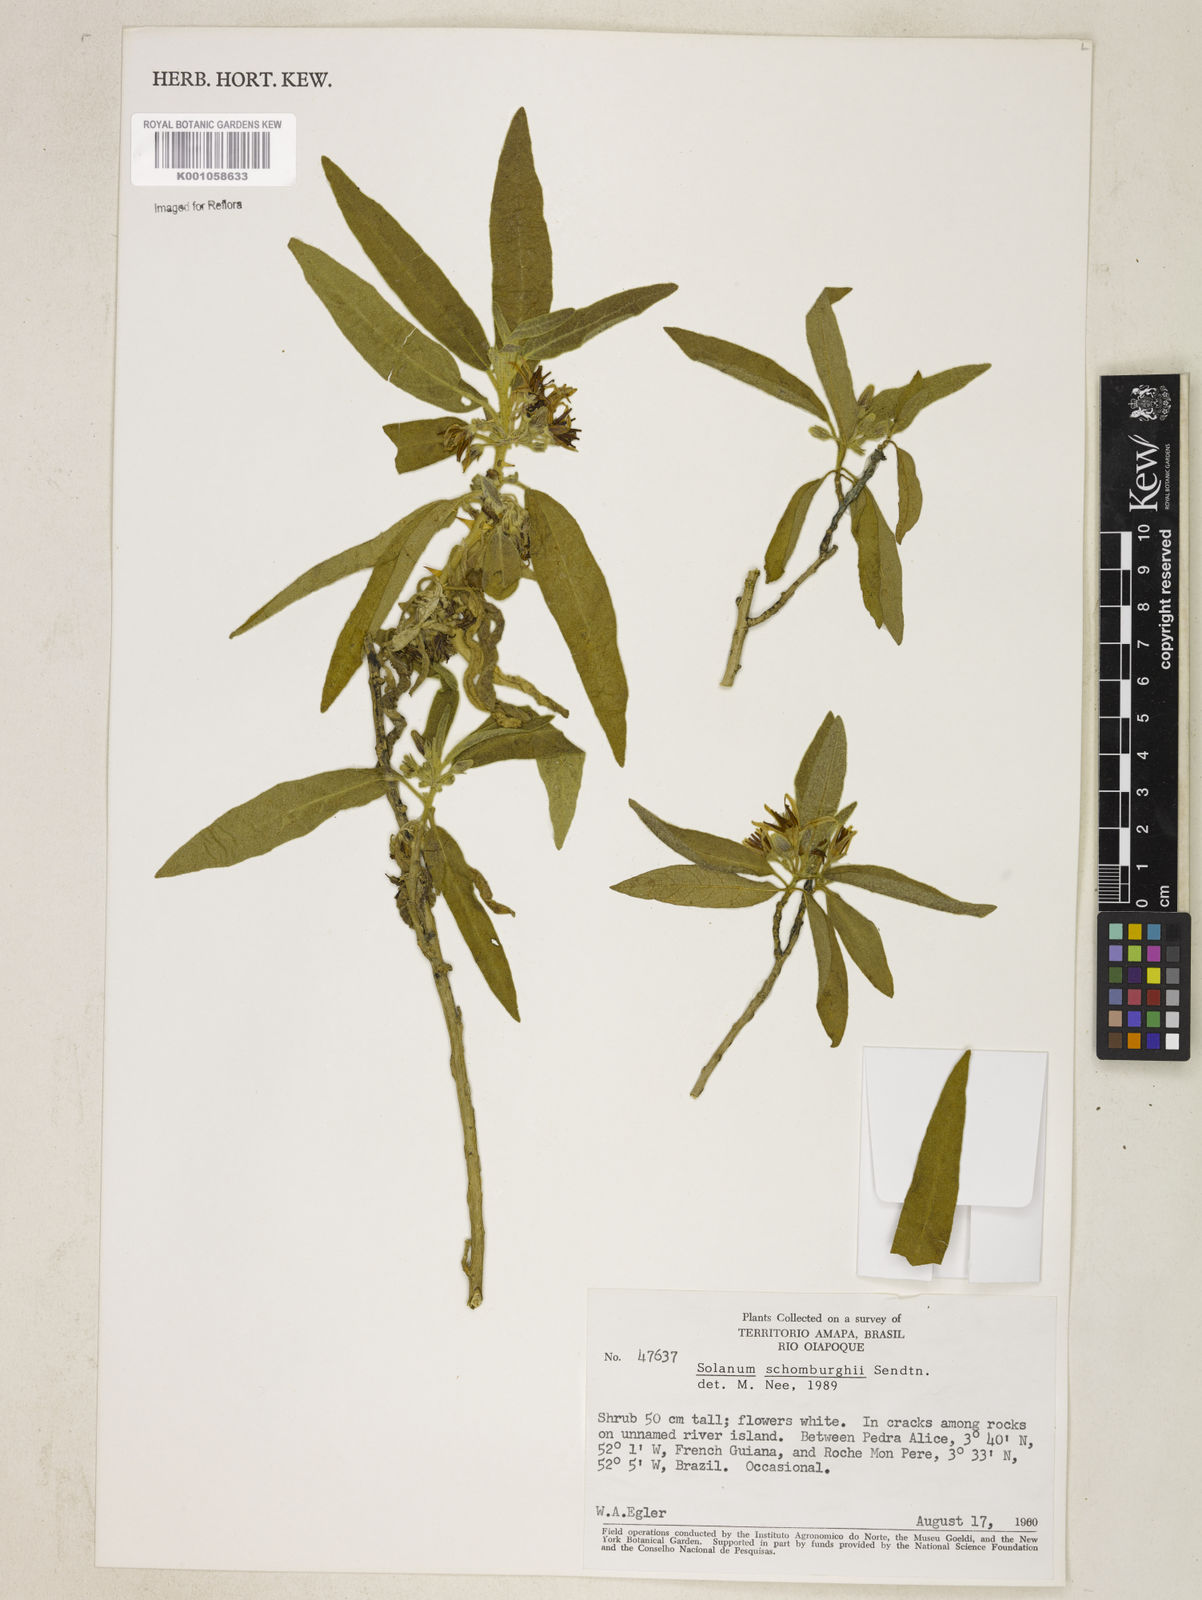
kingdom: Plantae
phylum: Tracheophyta
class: Magnoliopsida
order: Solanales
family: Solanaceae
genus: Solanum
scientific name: Solanum
